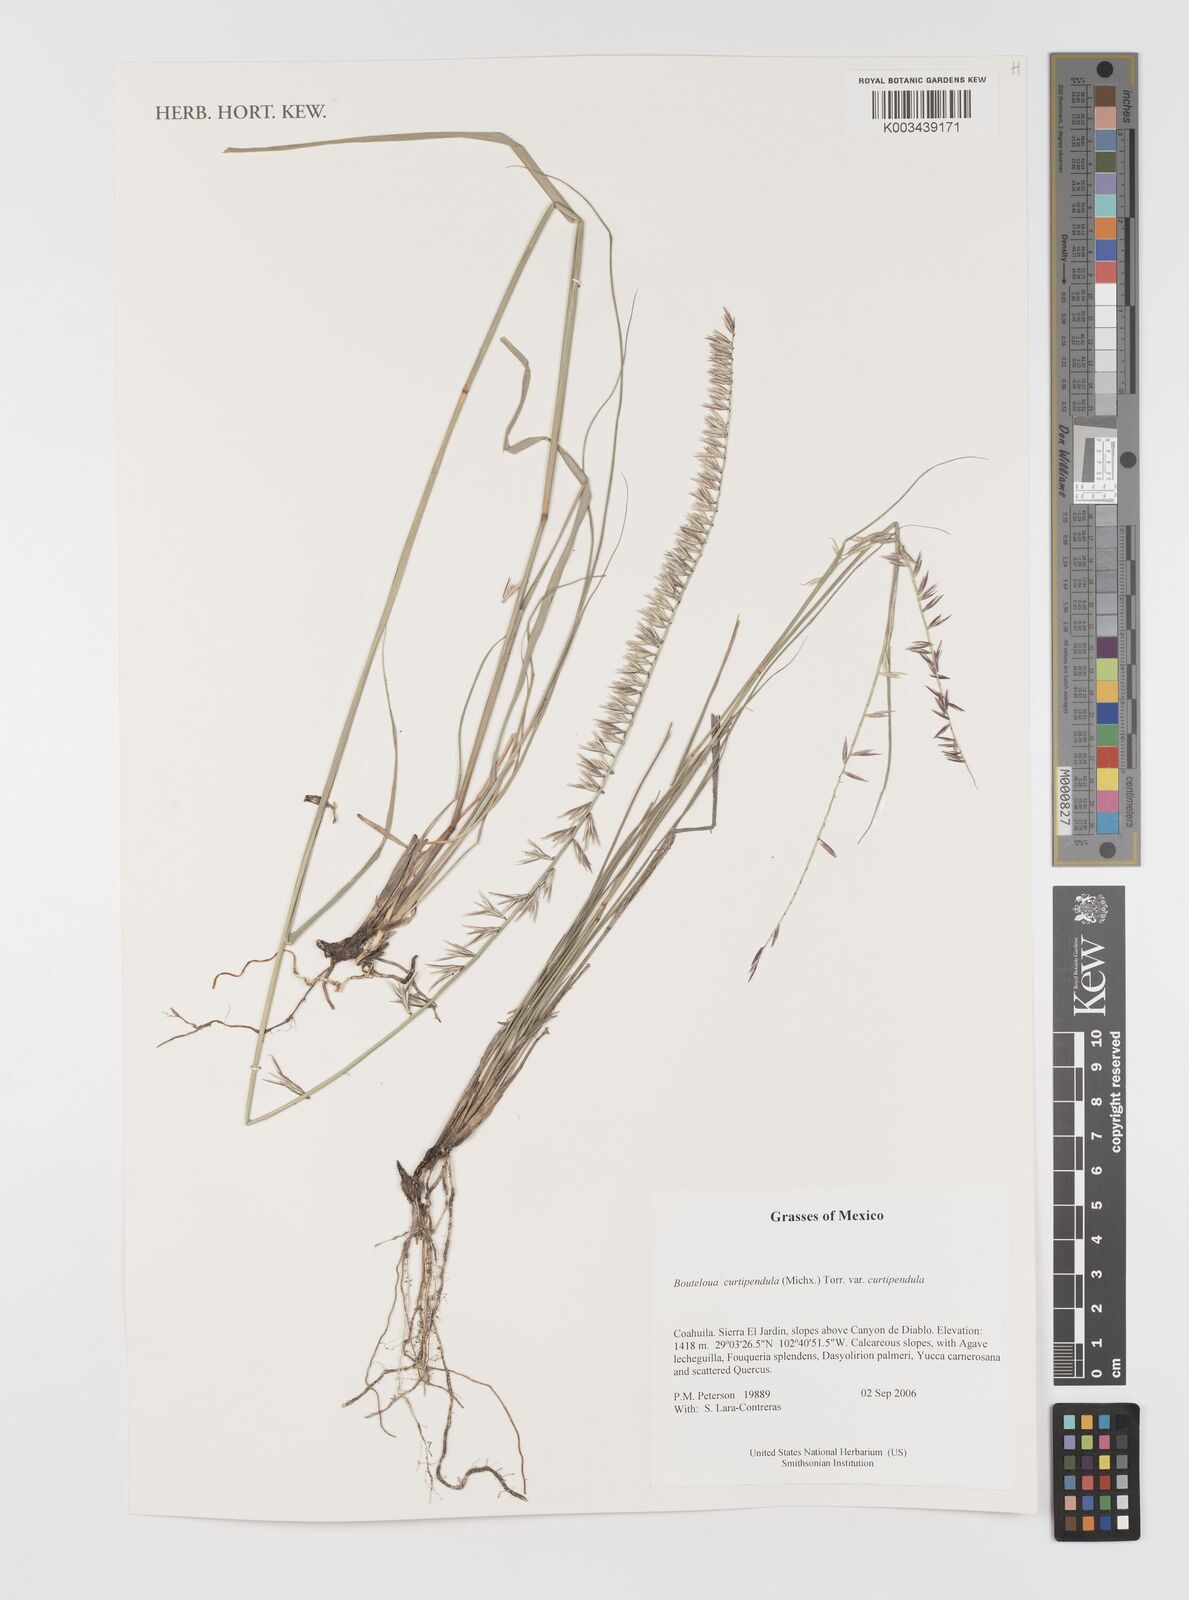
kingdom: Plantae
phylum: Tracheophyta
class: Liliopsida
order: Poales
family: Poaceae
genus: Bouteloua
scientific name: Bouteloua curtipendula
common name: Side-oats grama
